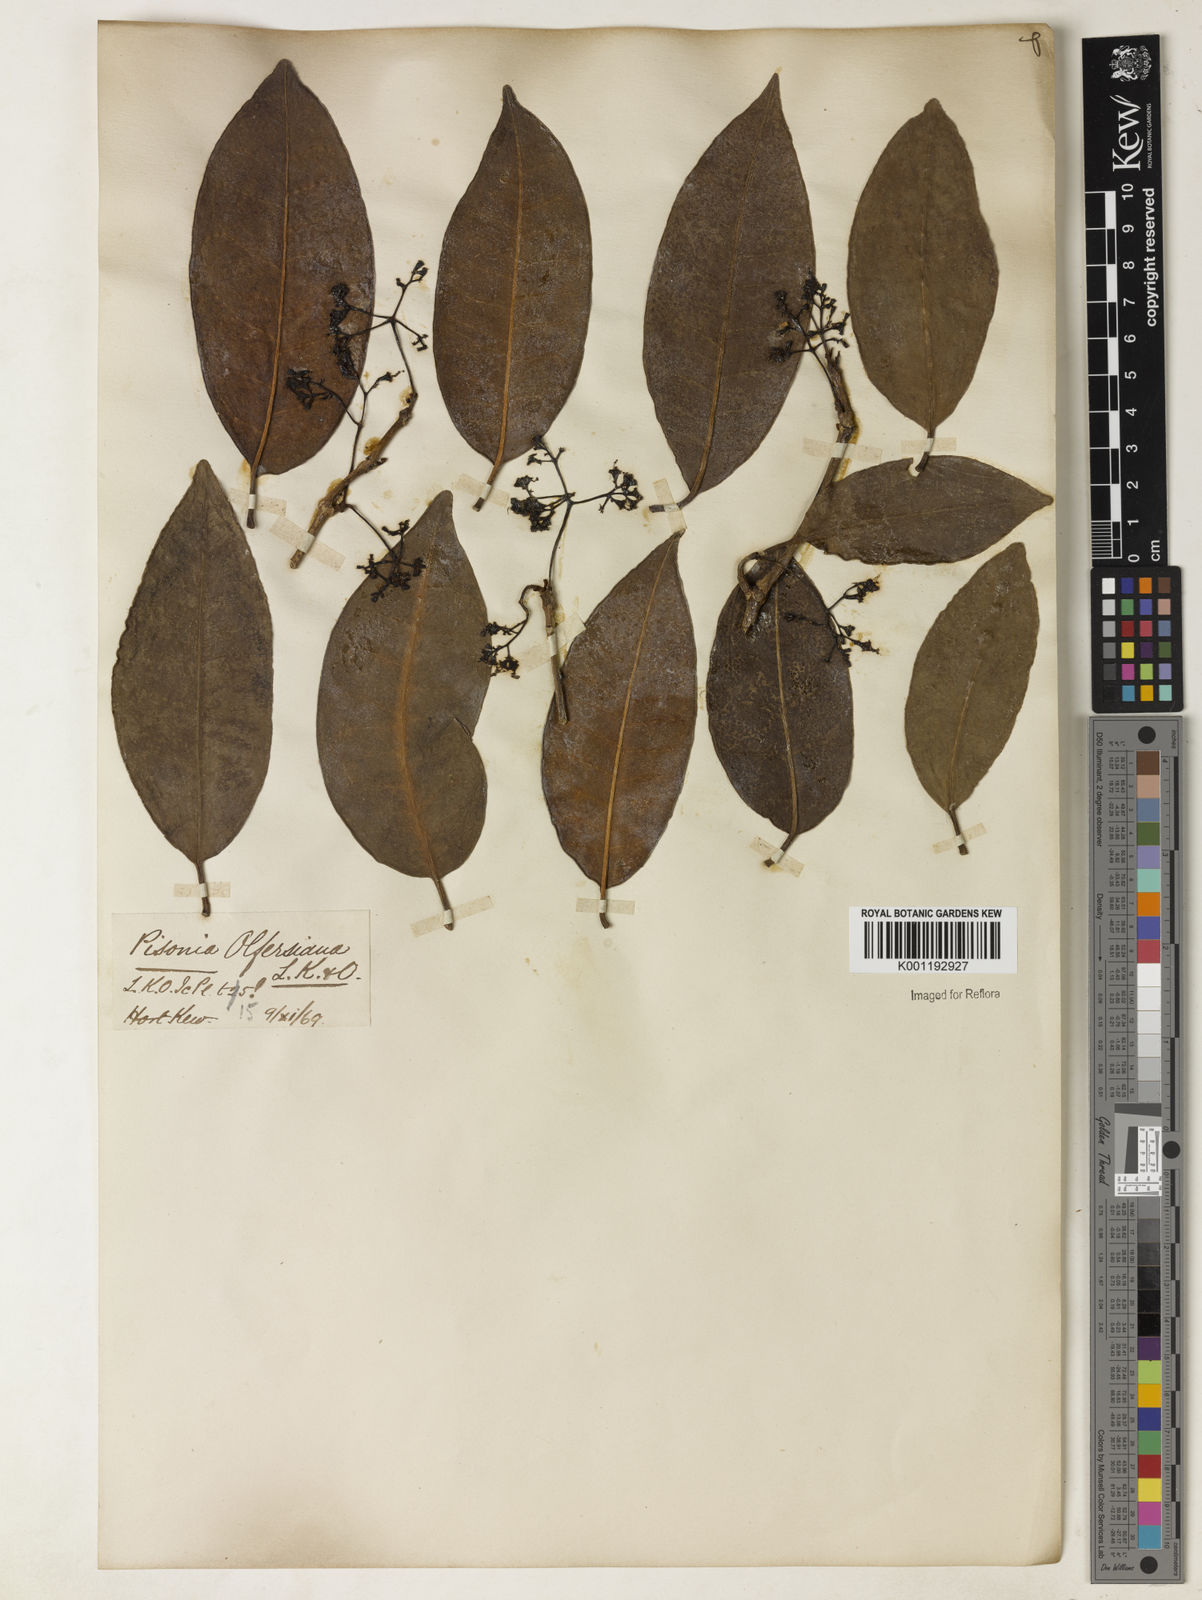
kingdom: Plantae
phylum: Tracheophyta
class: Magnoliopsida
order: Caryophyllales
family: Nyctaginaceae
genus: Guapira
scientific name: Guapira
